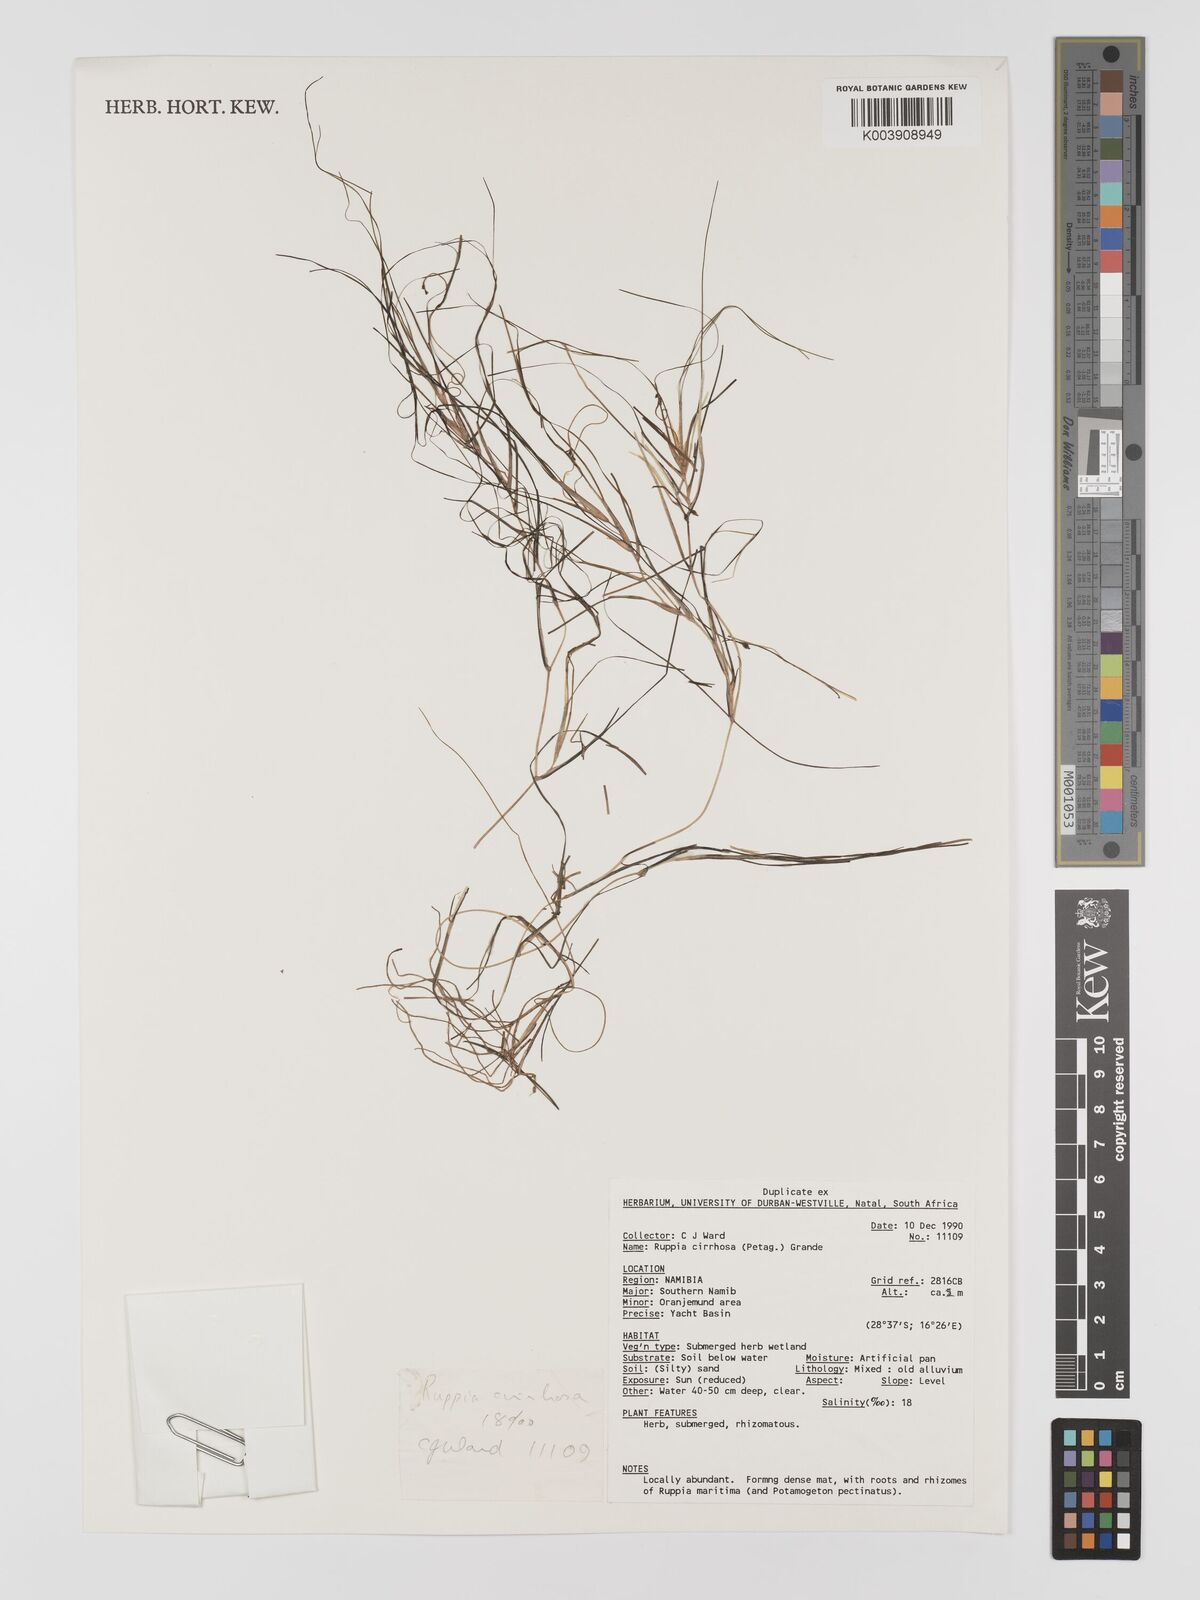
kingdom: Plantae
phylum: Tracheophyta
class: Liliopsida
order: Alismatales
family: Ruppiaceae
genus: Ruppia
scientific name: Ruppia cirrhosa
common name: Spiral tasselweed
